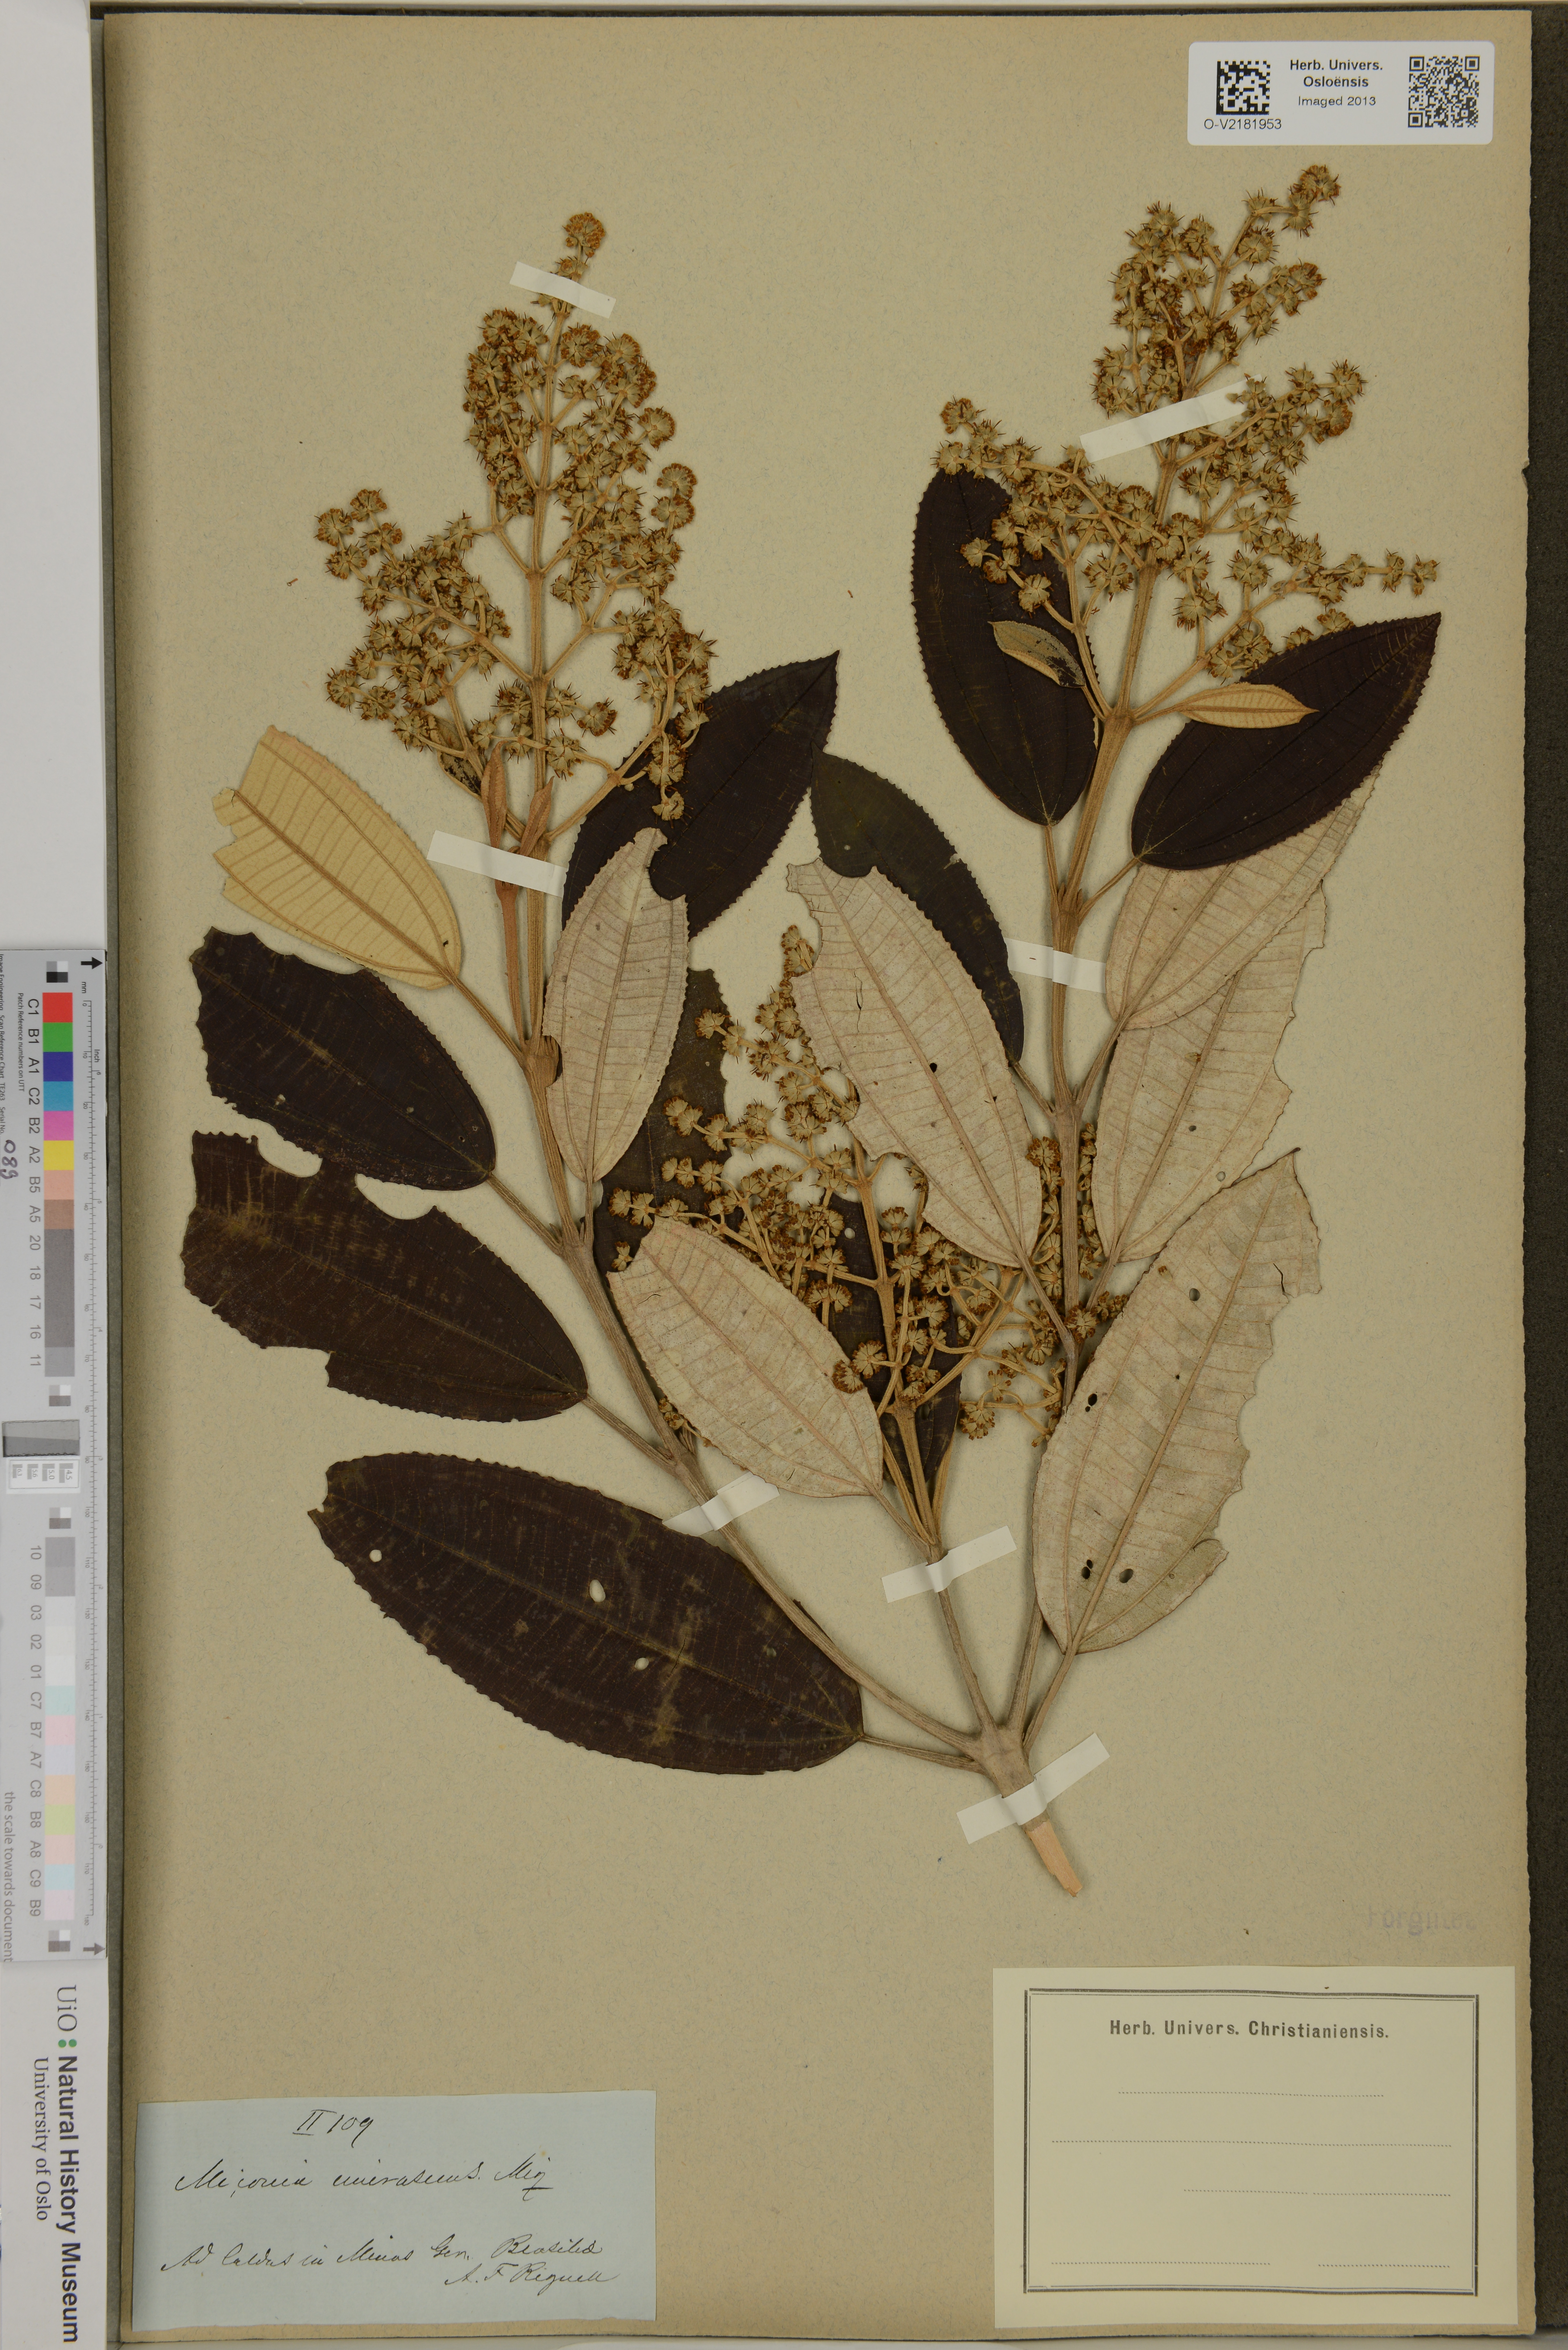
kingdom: Plantae
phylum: Tracheophyta
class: Magnoliopsida
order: Myrtales
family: Melastomataceae
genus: Miconia
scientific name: Miconia uninervis
